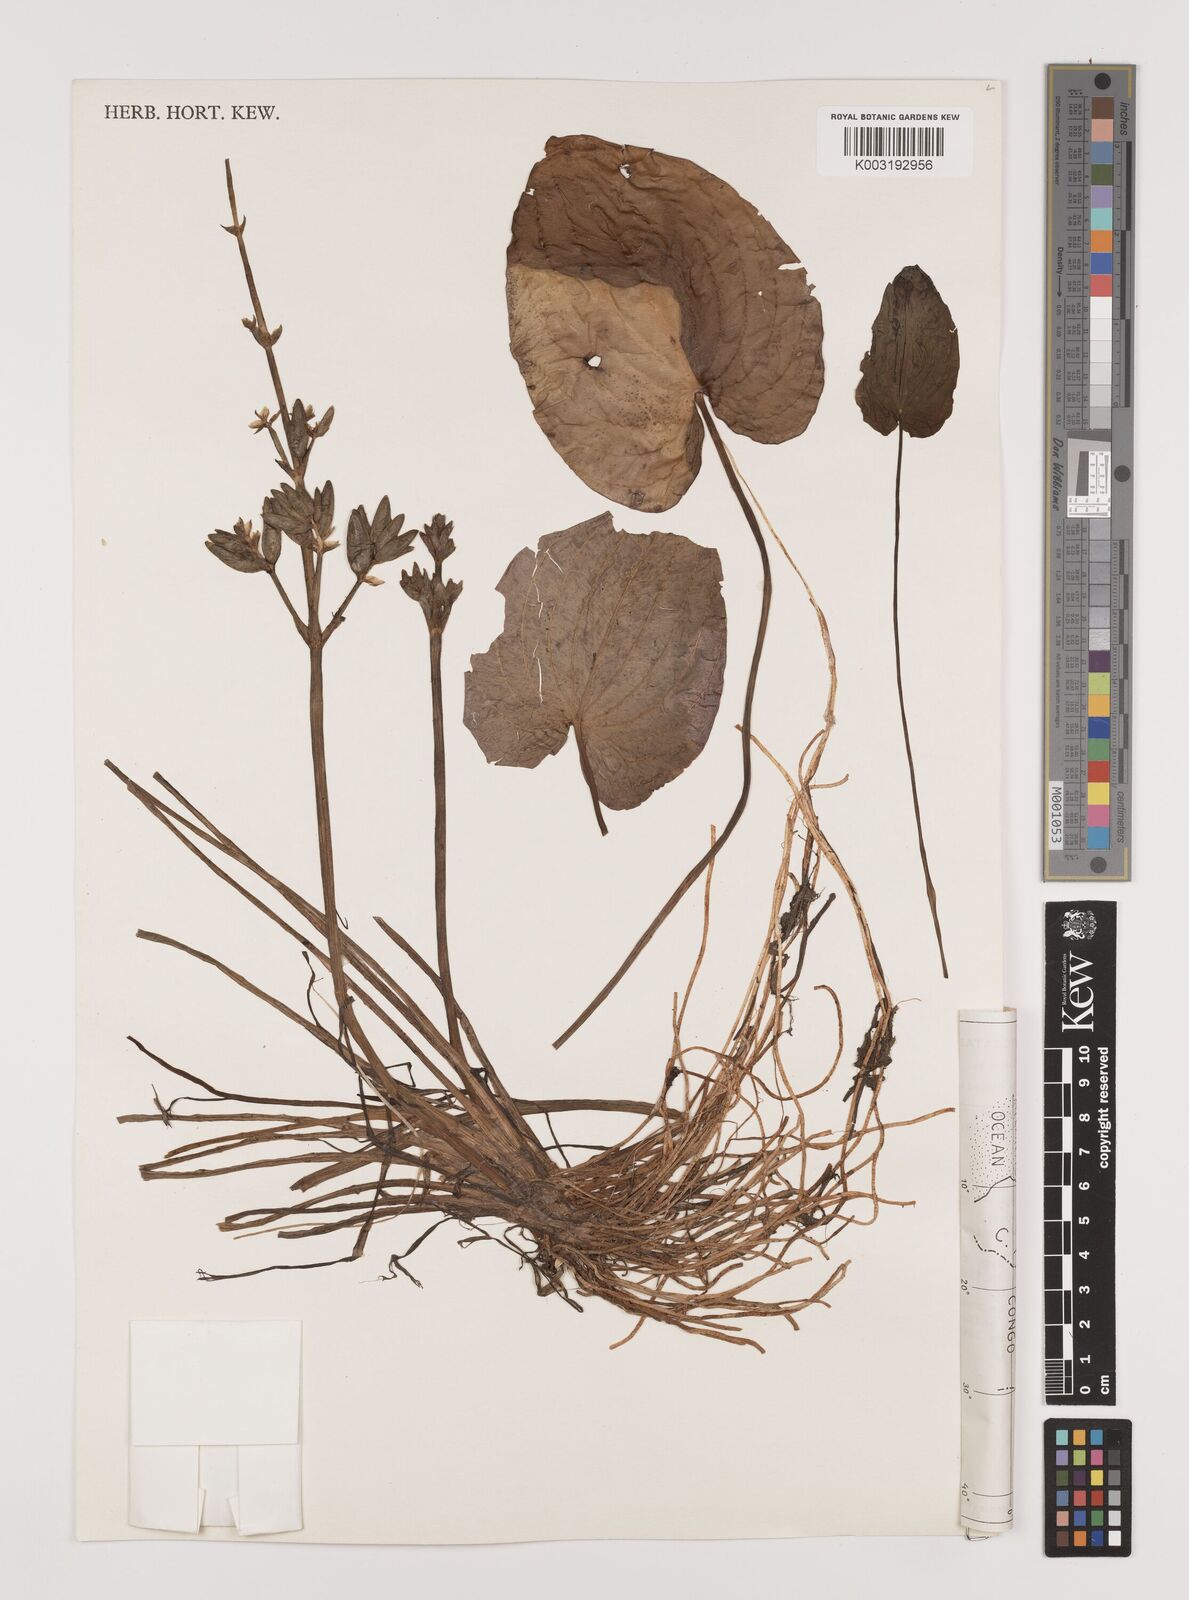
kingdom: Plantae
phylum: Tracheophyta
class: Liliopsida
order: Alismatales
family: Alismataceae
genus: Caldesia
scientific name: Caldesia parnassifolia
